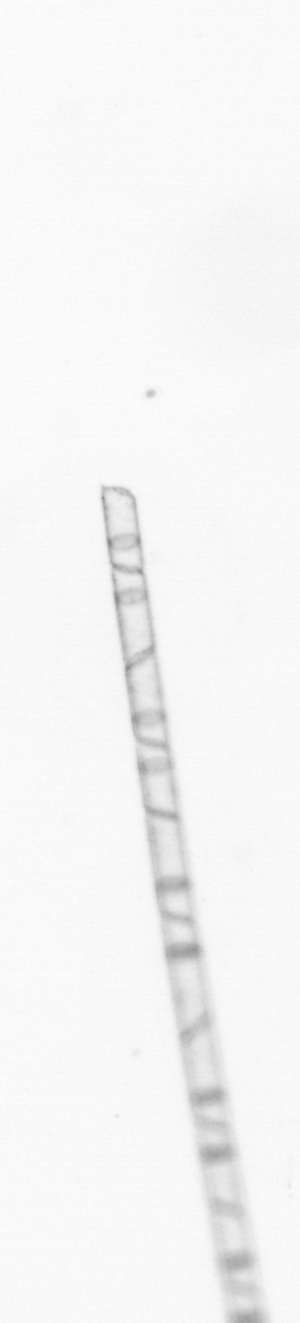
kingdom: Chromista
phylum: Ochrophyta
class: Bacillariophyceae
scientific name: Bacillariophyceae
